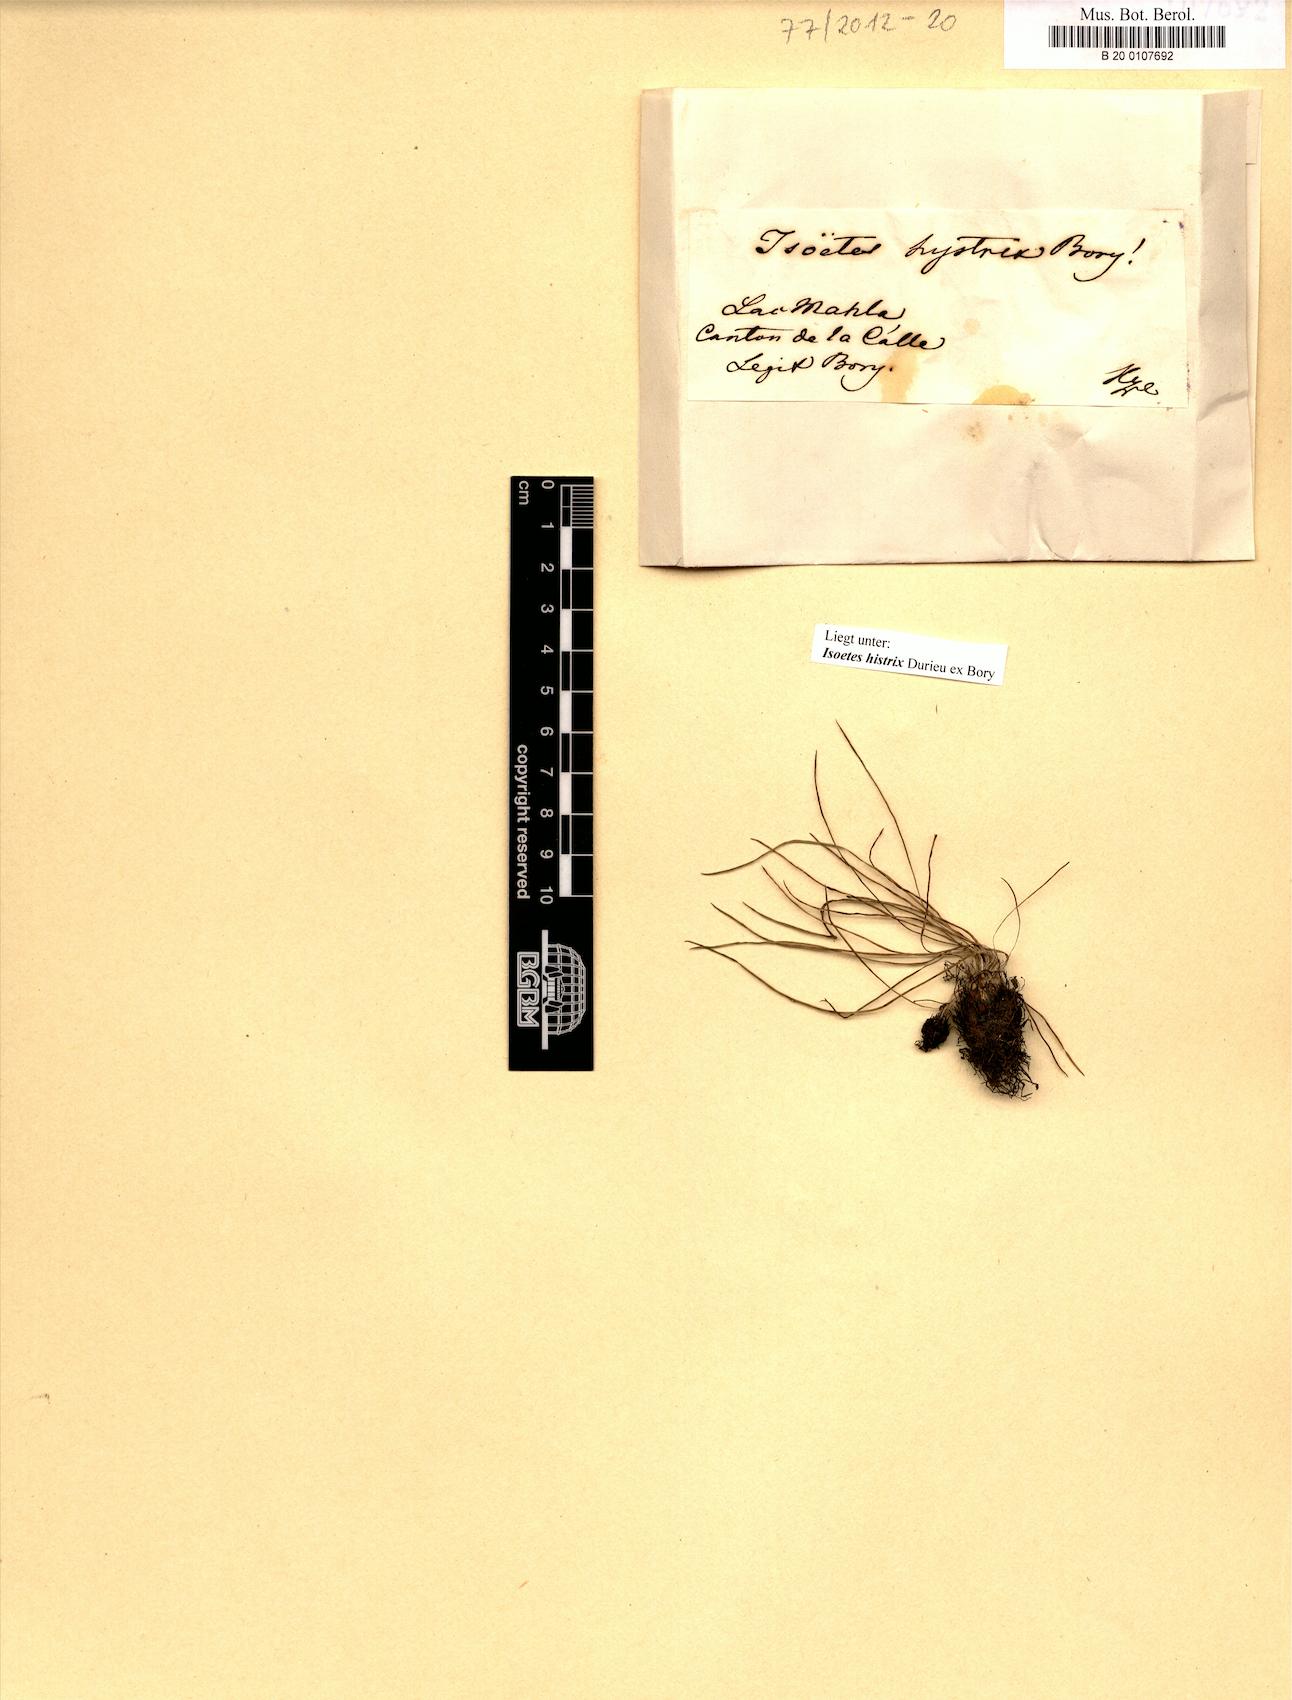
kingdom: Plantae
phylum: Tracheophyta
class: Lycopodiopsida
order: Isoetales
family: Isoetaceae
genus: Isoetes
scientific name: Isoetes histrix
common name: Land quillwort
